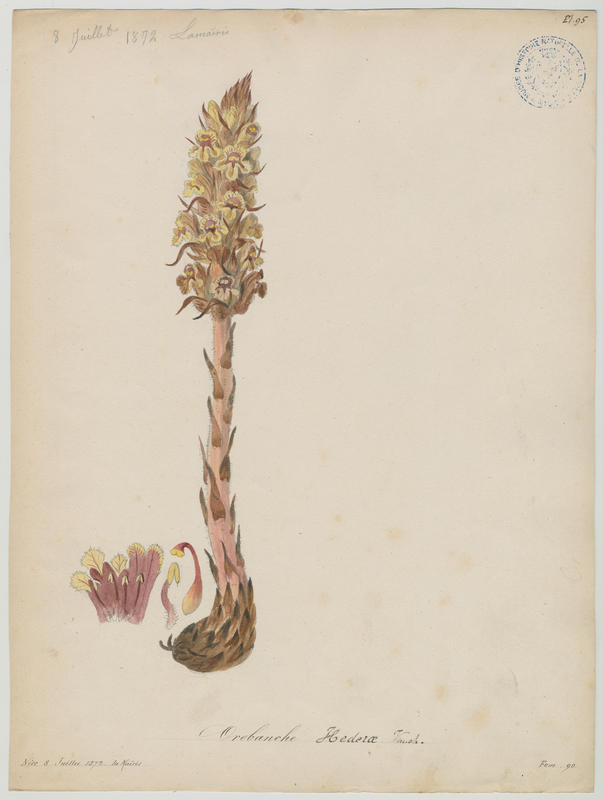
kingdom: Plantae
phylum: Tracheophyta
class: Magnoliopsida
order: Lamiales
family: Orobanchaceae
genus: Orobanche
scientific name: Orobanche hederae
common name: Ivy broomrape
